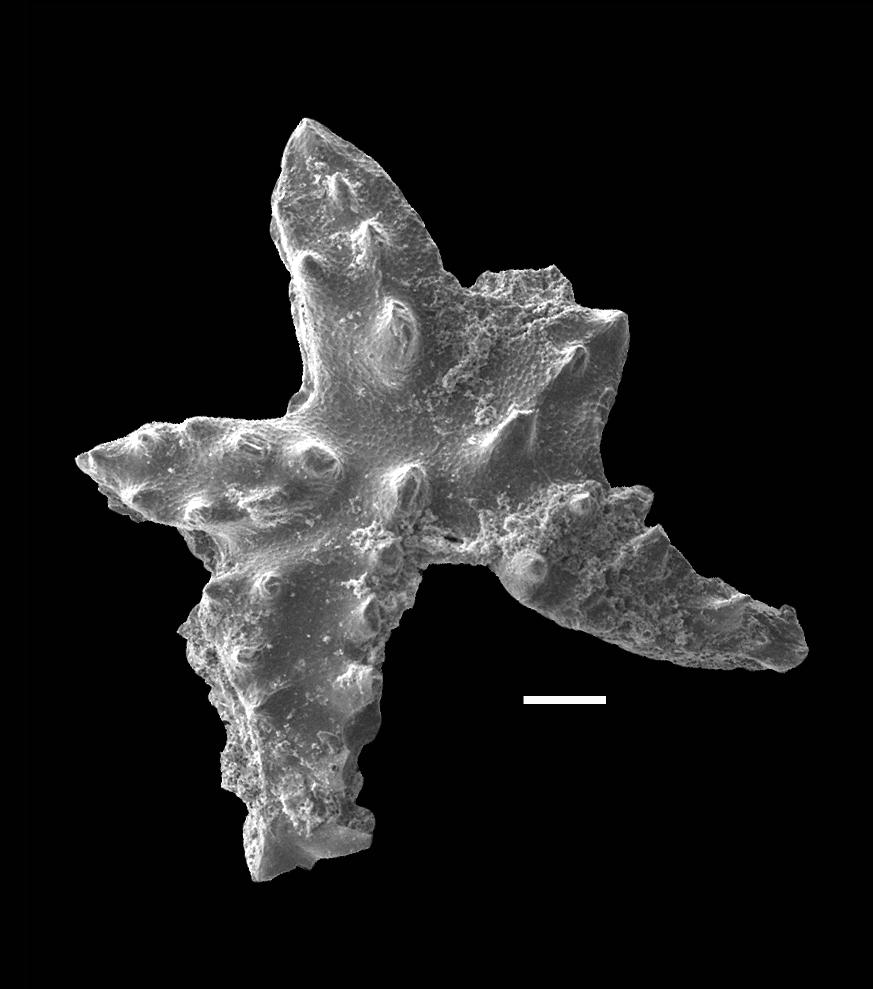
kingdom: Animalia
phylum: Chordata
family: Distomodontidae
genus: Distomodus
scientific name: Distomodus Johnognathus huddlei
